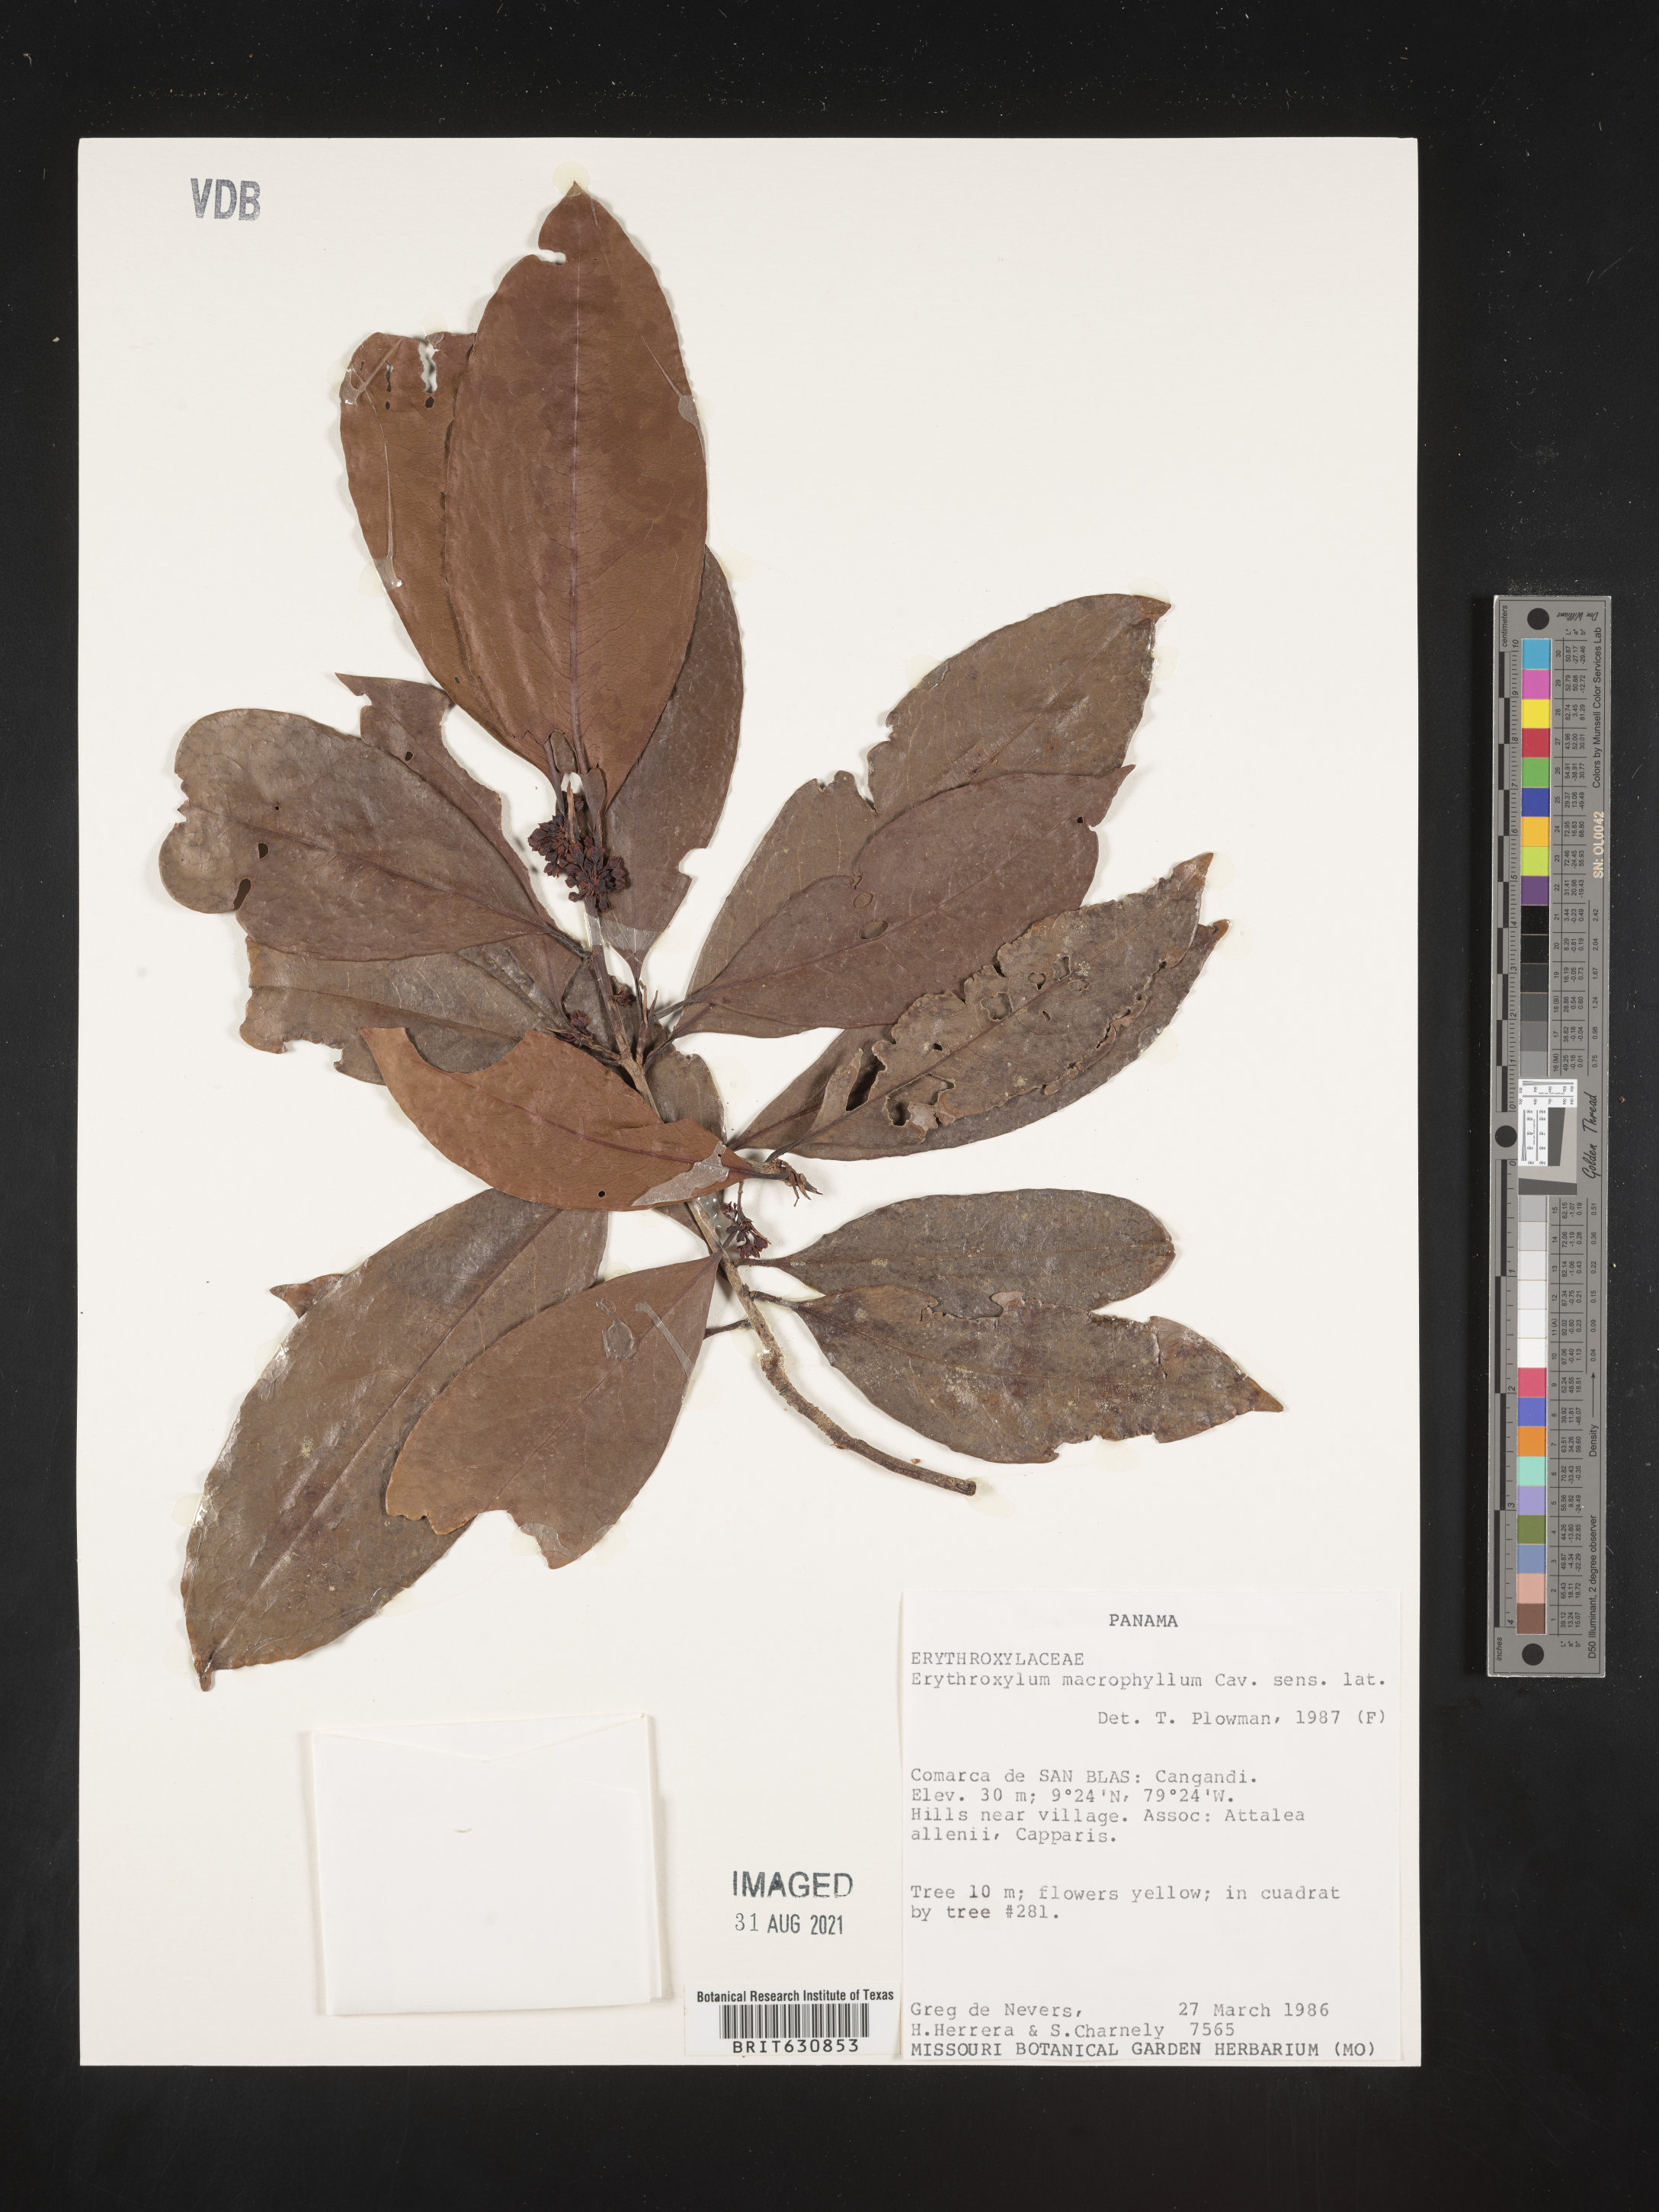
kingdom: Plantae
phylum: Tracheophyta
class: Magnoliopsida
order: Malpighiales
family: Erythroxylaceae
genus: Erythroxylum
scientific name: Erythroxylum
